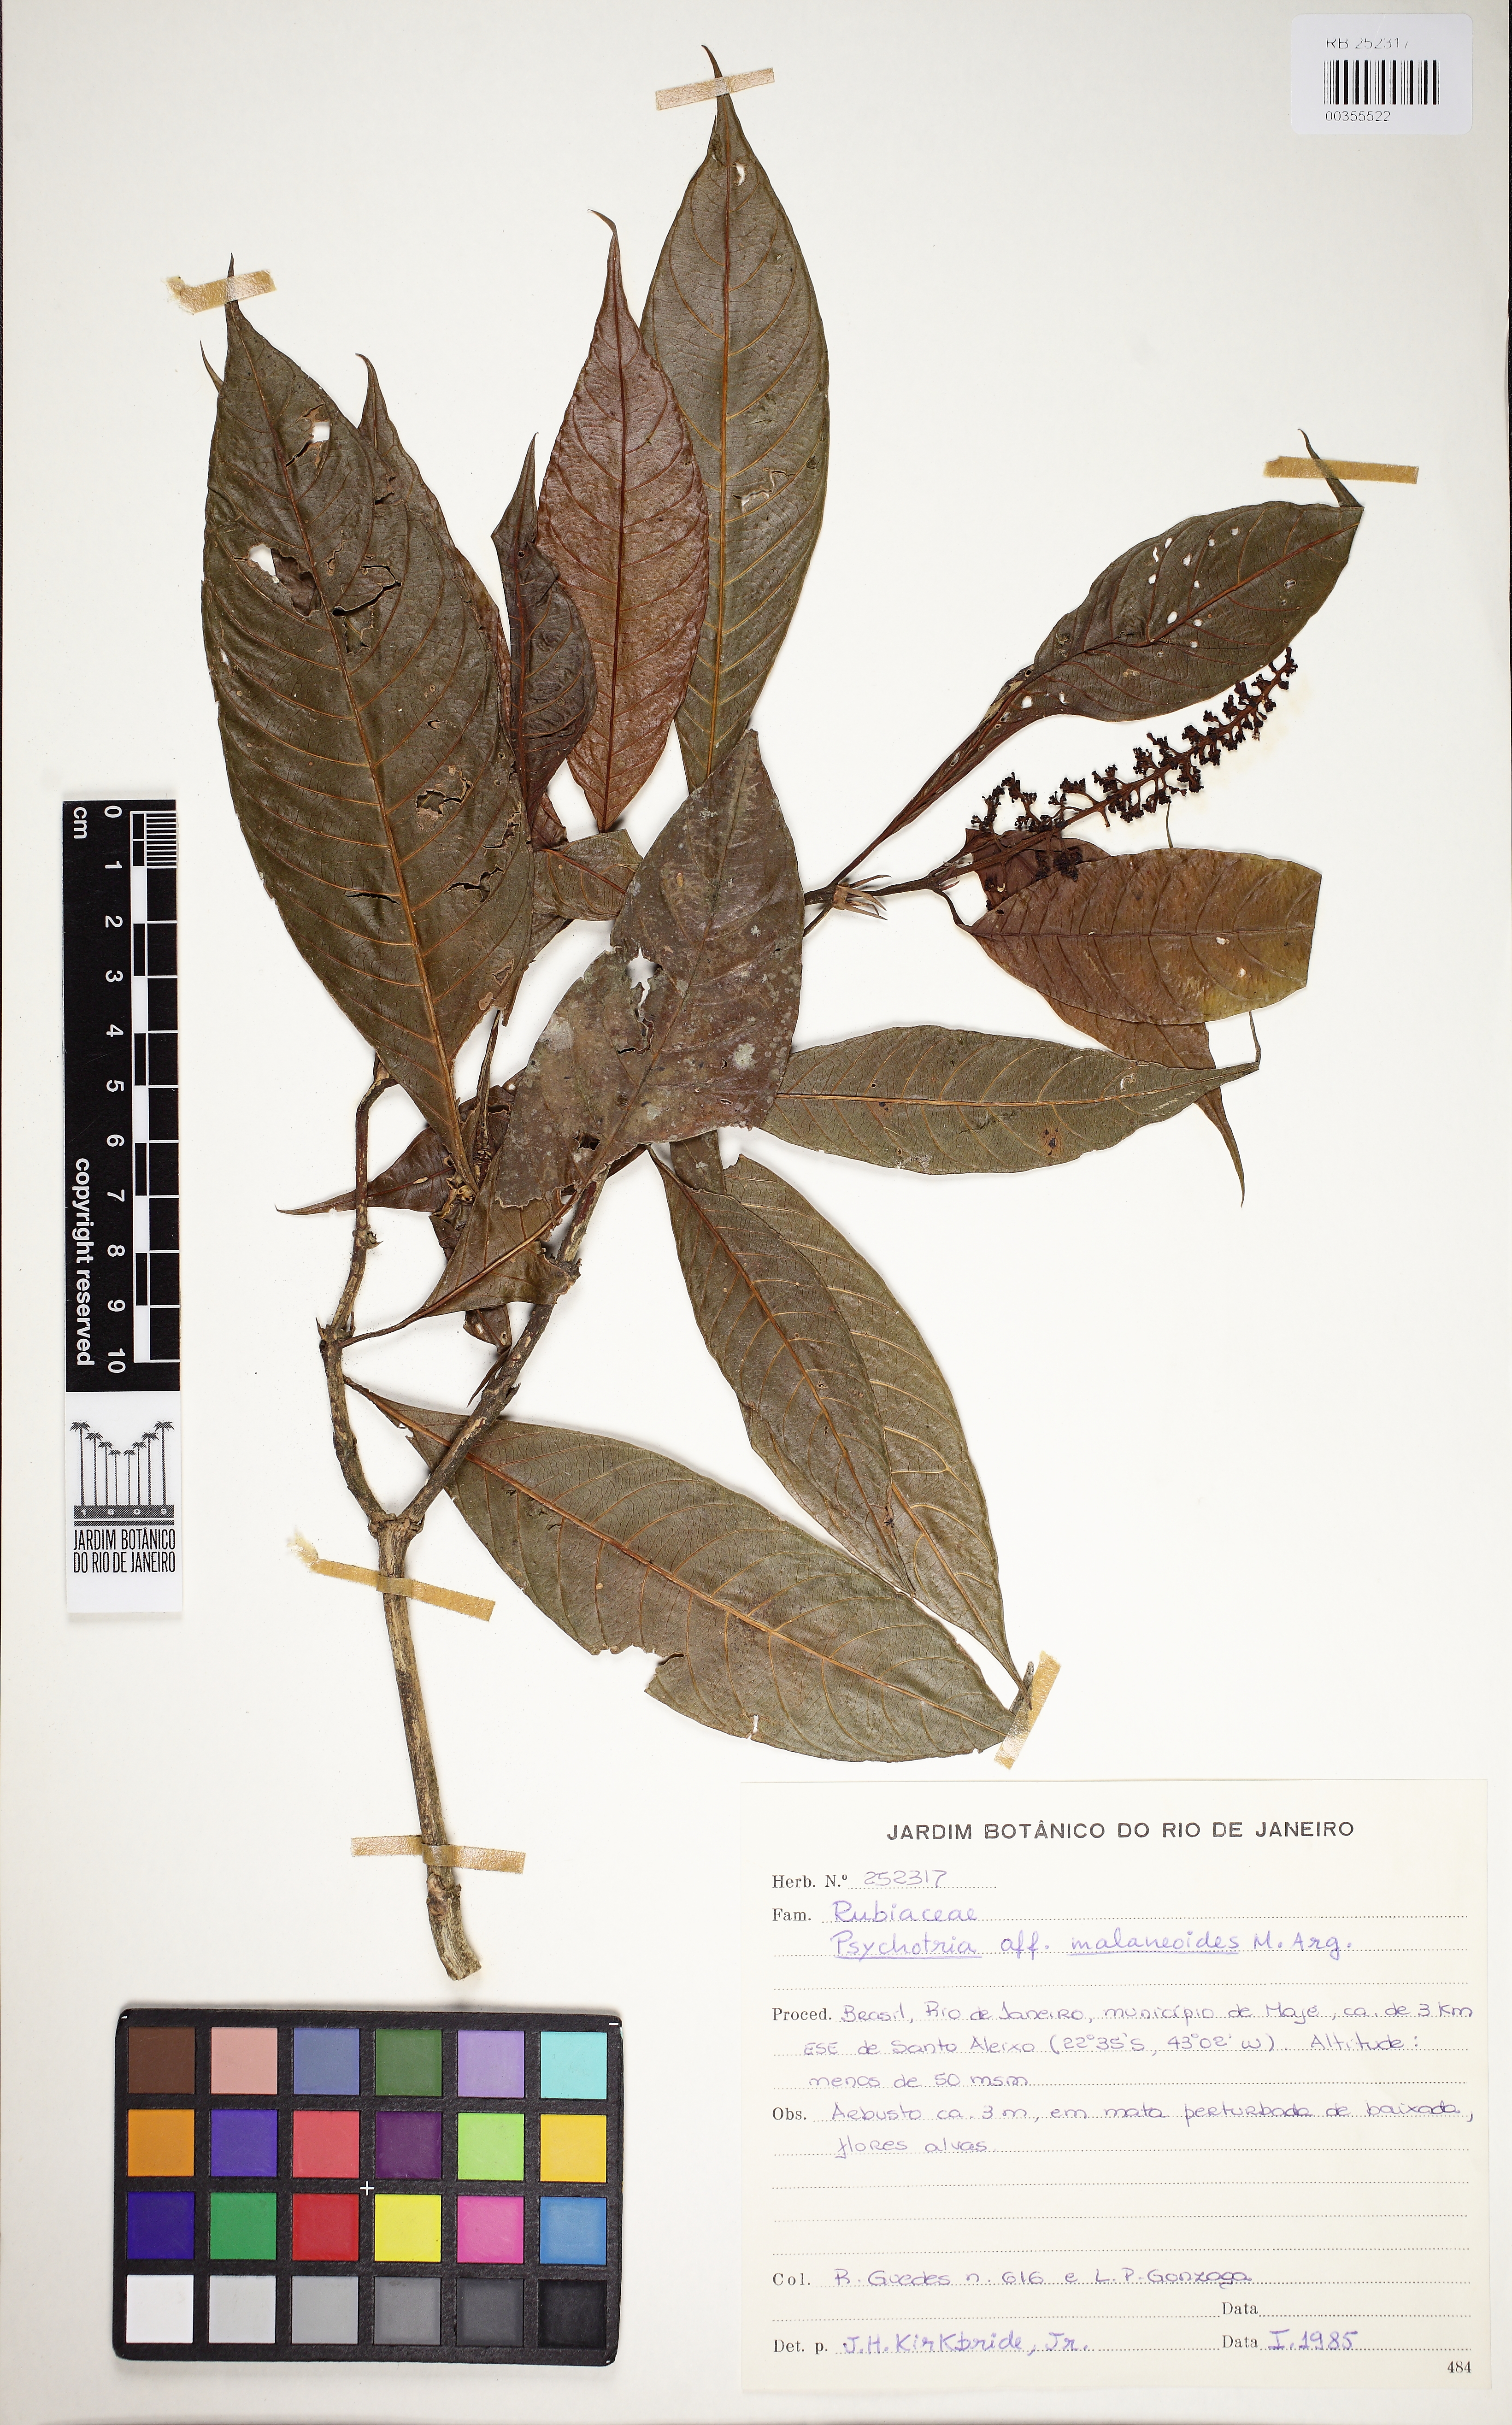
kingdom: Plantae
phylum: Tracheophyta
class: Magnoliopsida
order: Gentianales
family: Rubiaceae
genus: Palicourea
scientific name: Palicourea malaneoides
